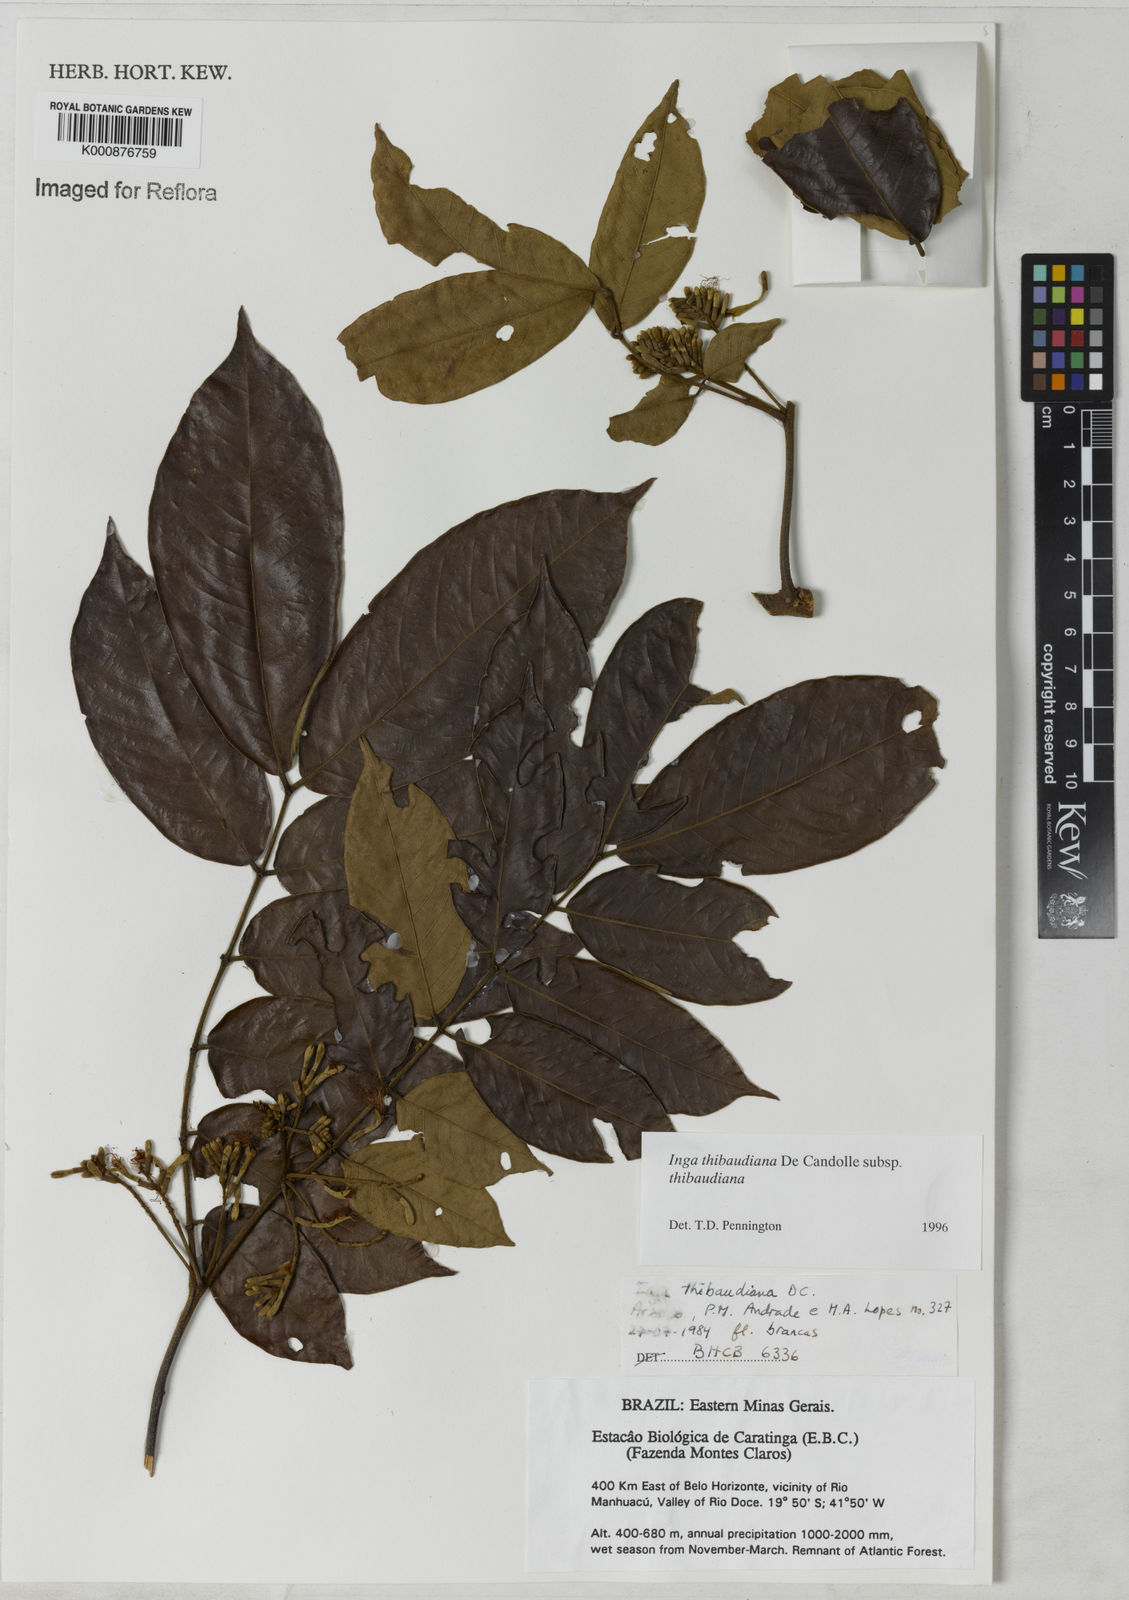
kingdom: Plantae
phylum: Tracheophyta
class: Magnoliopsida
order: Fabales
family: Fabaceae
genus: Inga
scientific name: Inga thibaudiana
